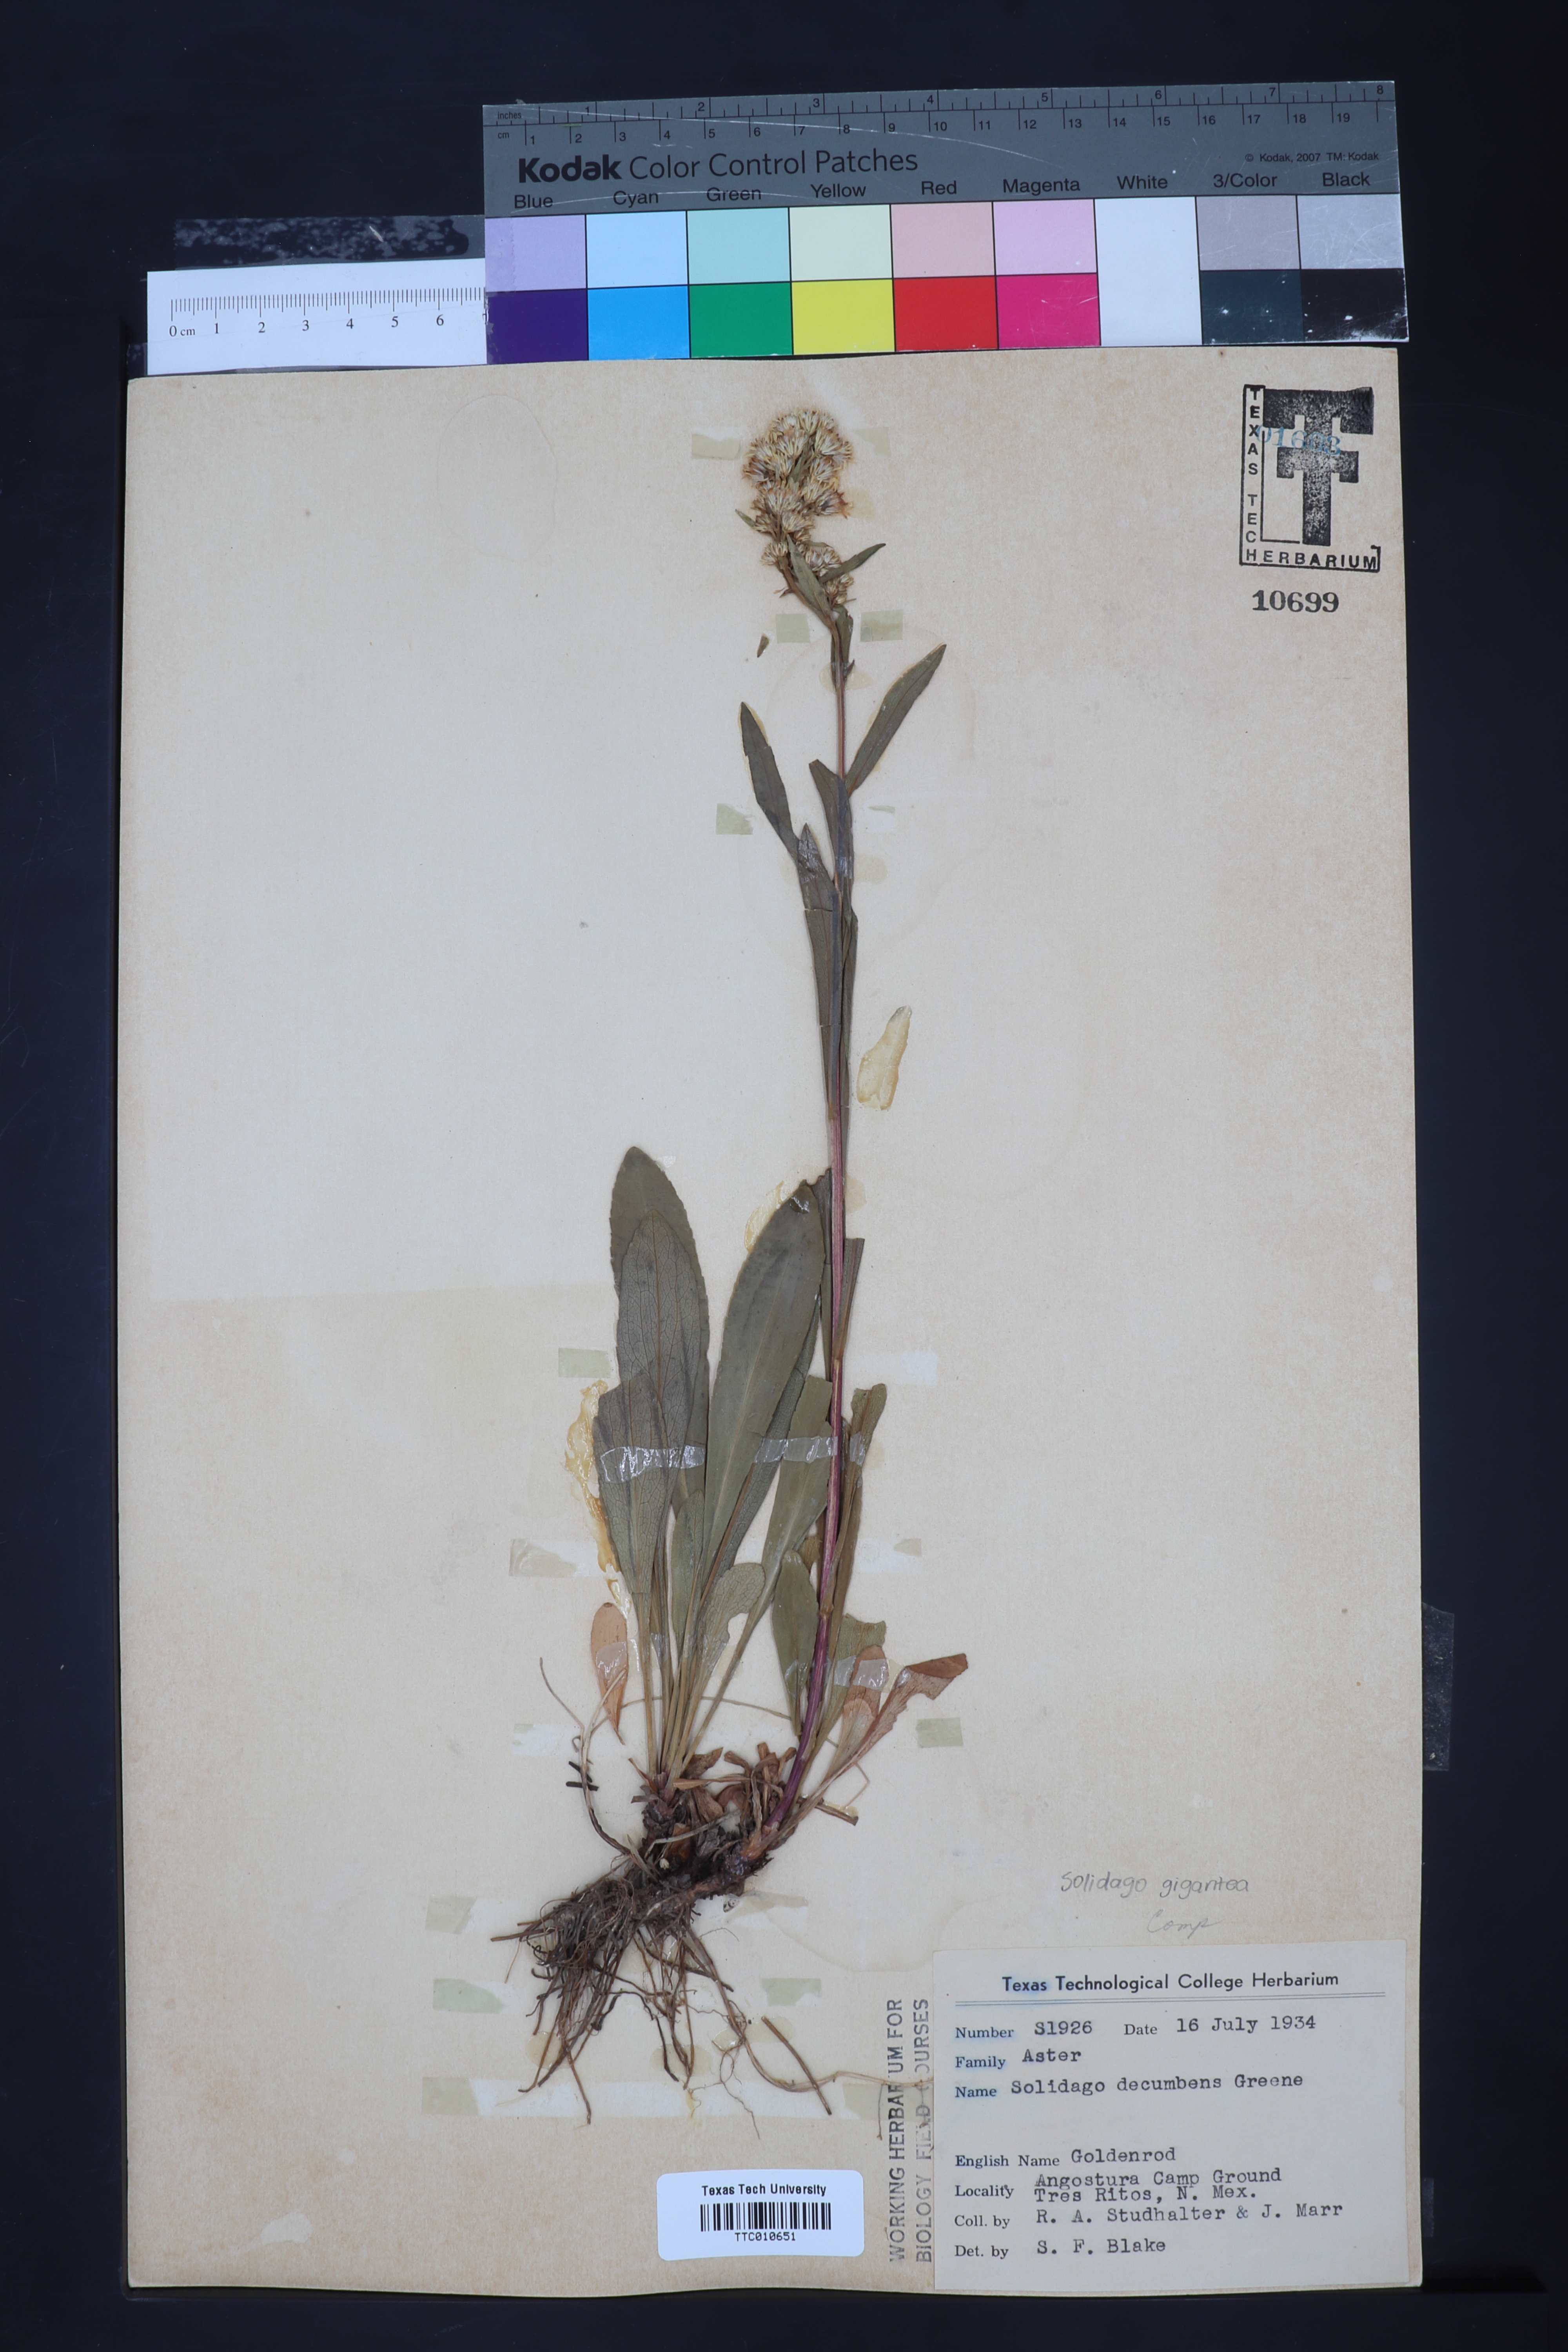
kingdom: Plantae
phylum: Tracheophyta
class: Magnoliopsida
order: Asterales
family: Asteraceae
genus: Solidago
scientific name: Solidago glutinosa
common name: Decumbent goldenrod
